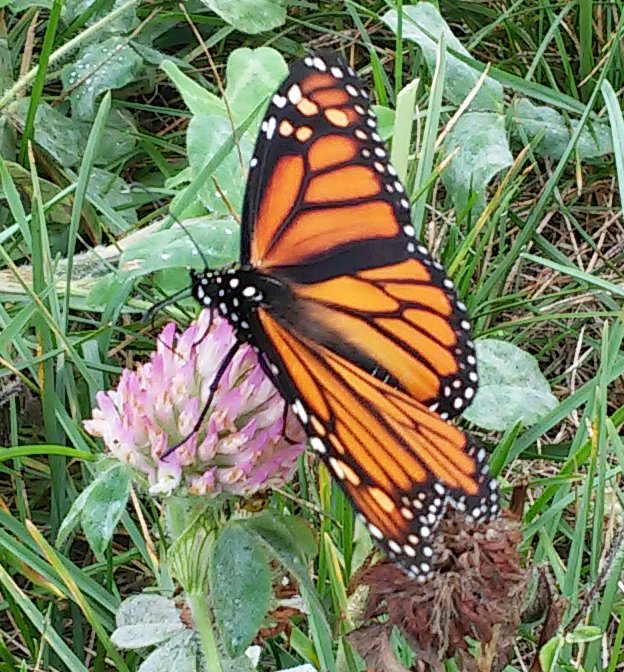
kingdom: Animalia
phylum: Arthropoda
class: Insecta
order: Lepidoptera
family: Nymphalidae
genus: Danaus
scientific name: Danaus plexippus
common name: Monarch
